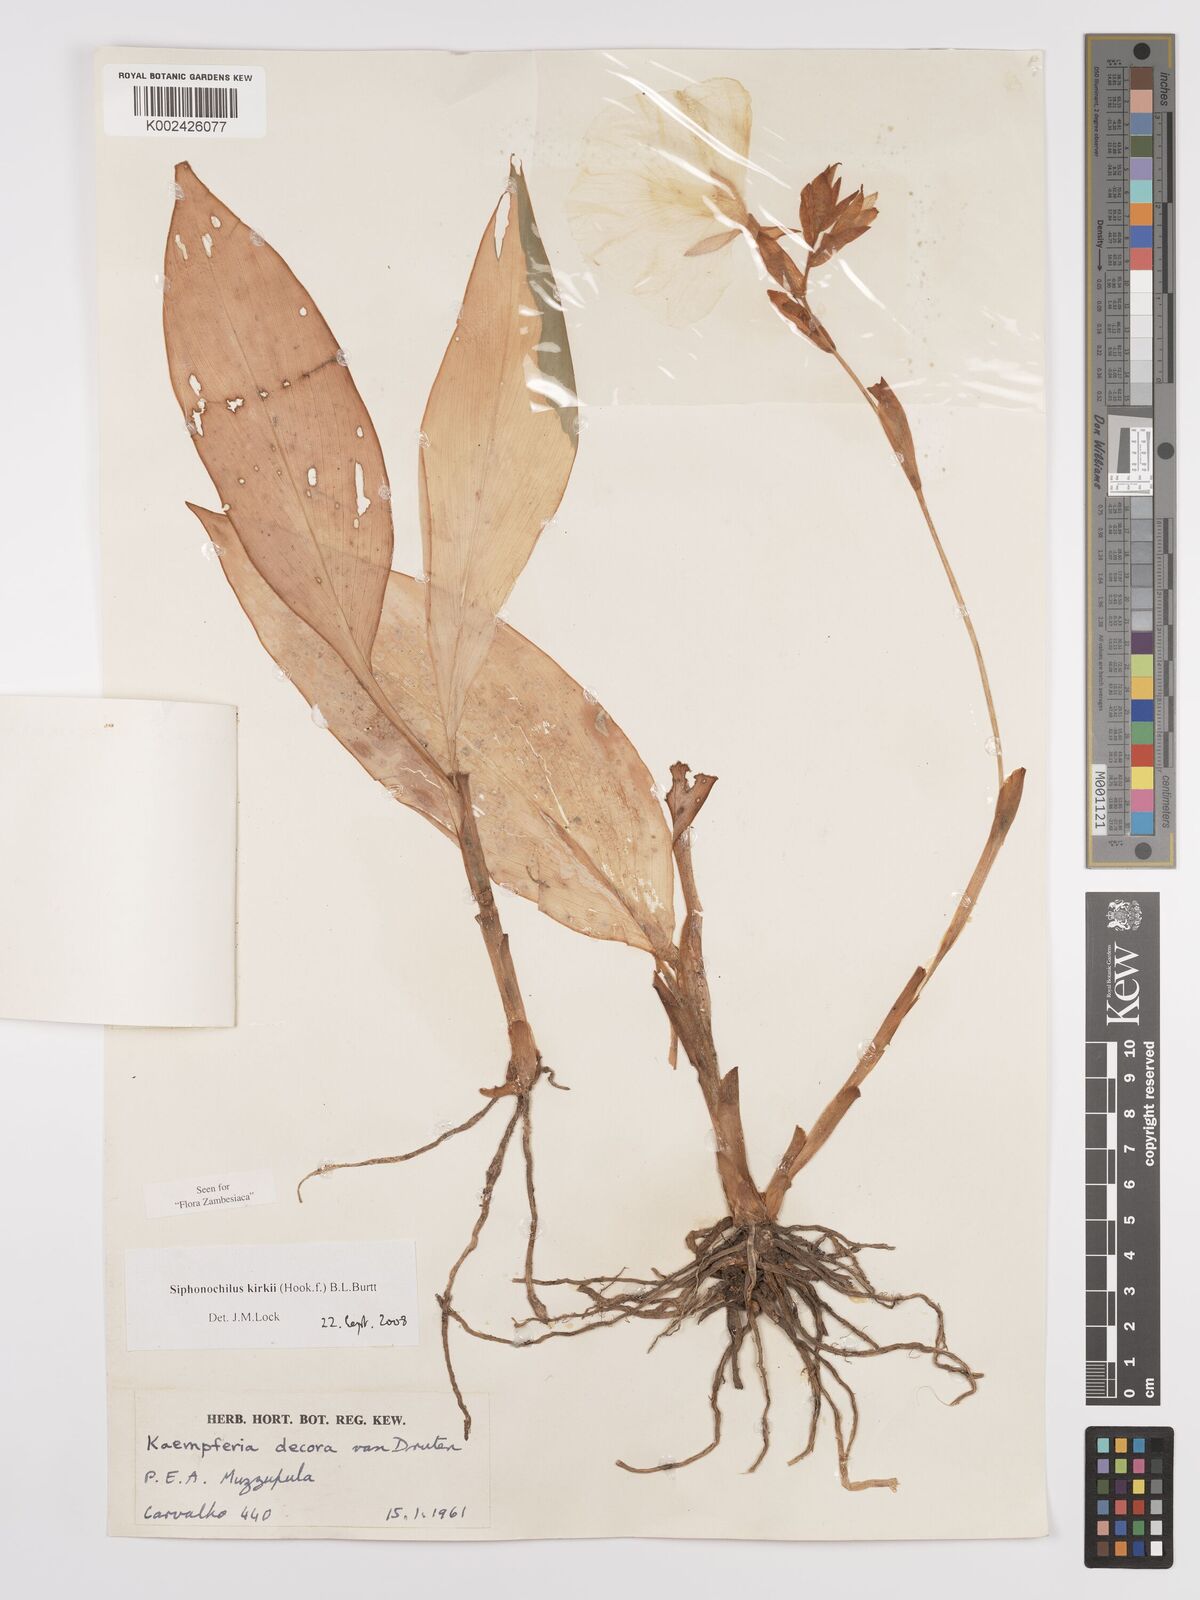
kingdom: Plantae
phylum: Tracheophyta
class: Liliopsida
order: Zingiberales
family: Zingiberaceae
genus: Siphonochilus
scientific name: Siphonochilus kirkii
